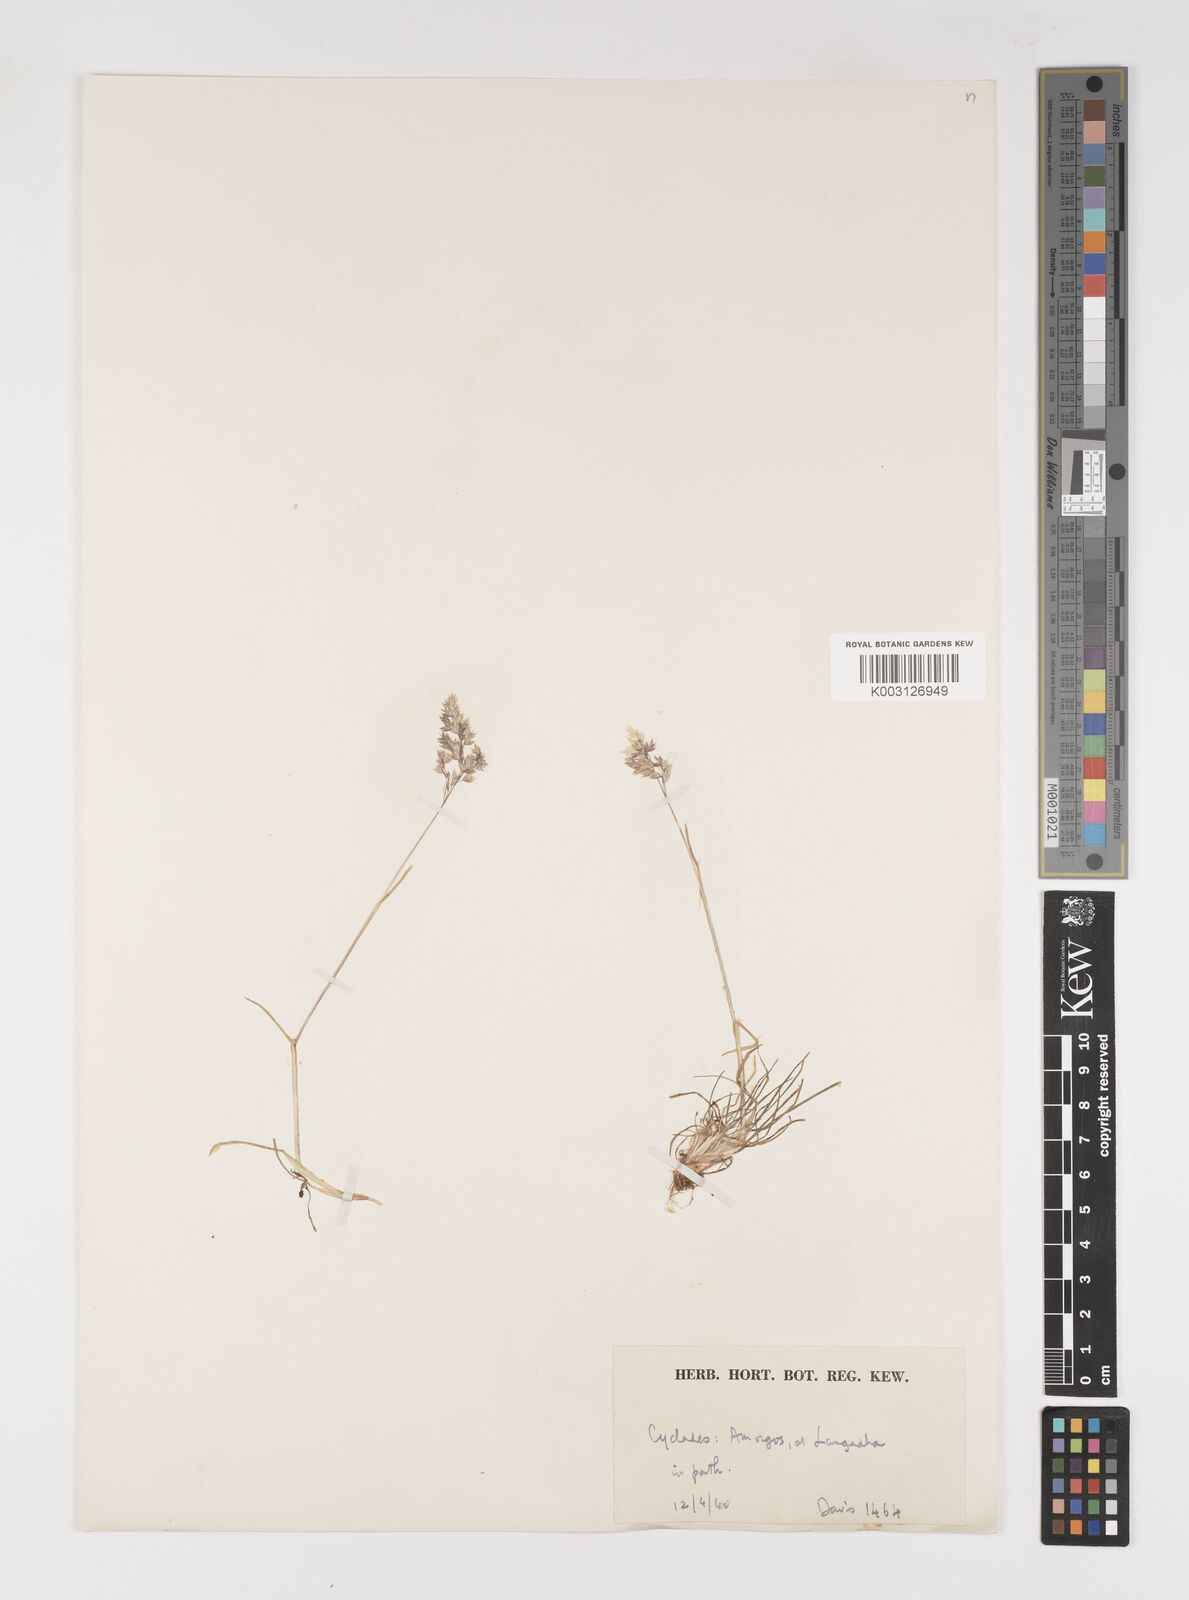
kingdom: Plantae
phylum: Tracheophyta
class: Liliopsida
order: Poales
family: Poaceae
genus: Poa
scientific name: Poa bulbosa
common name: Bulbous bluegrass
